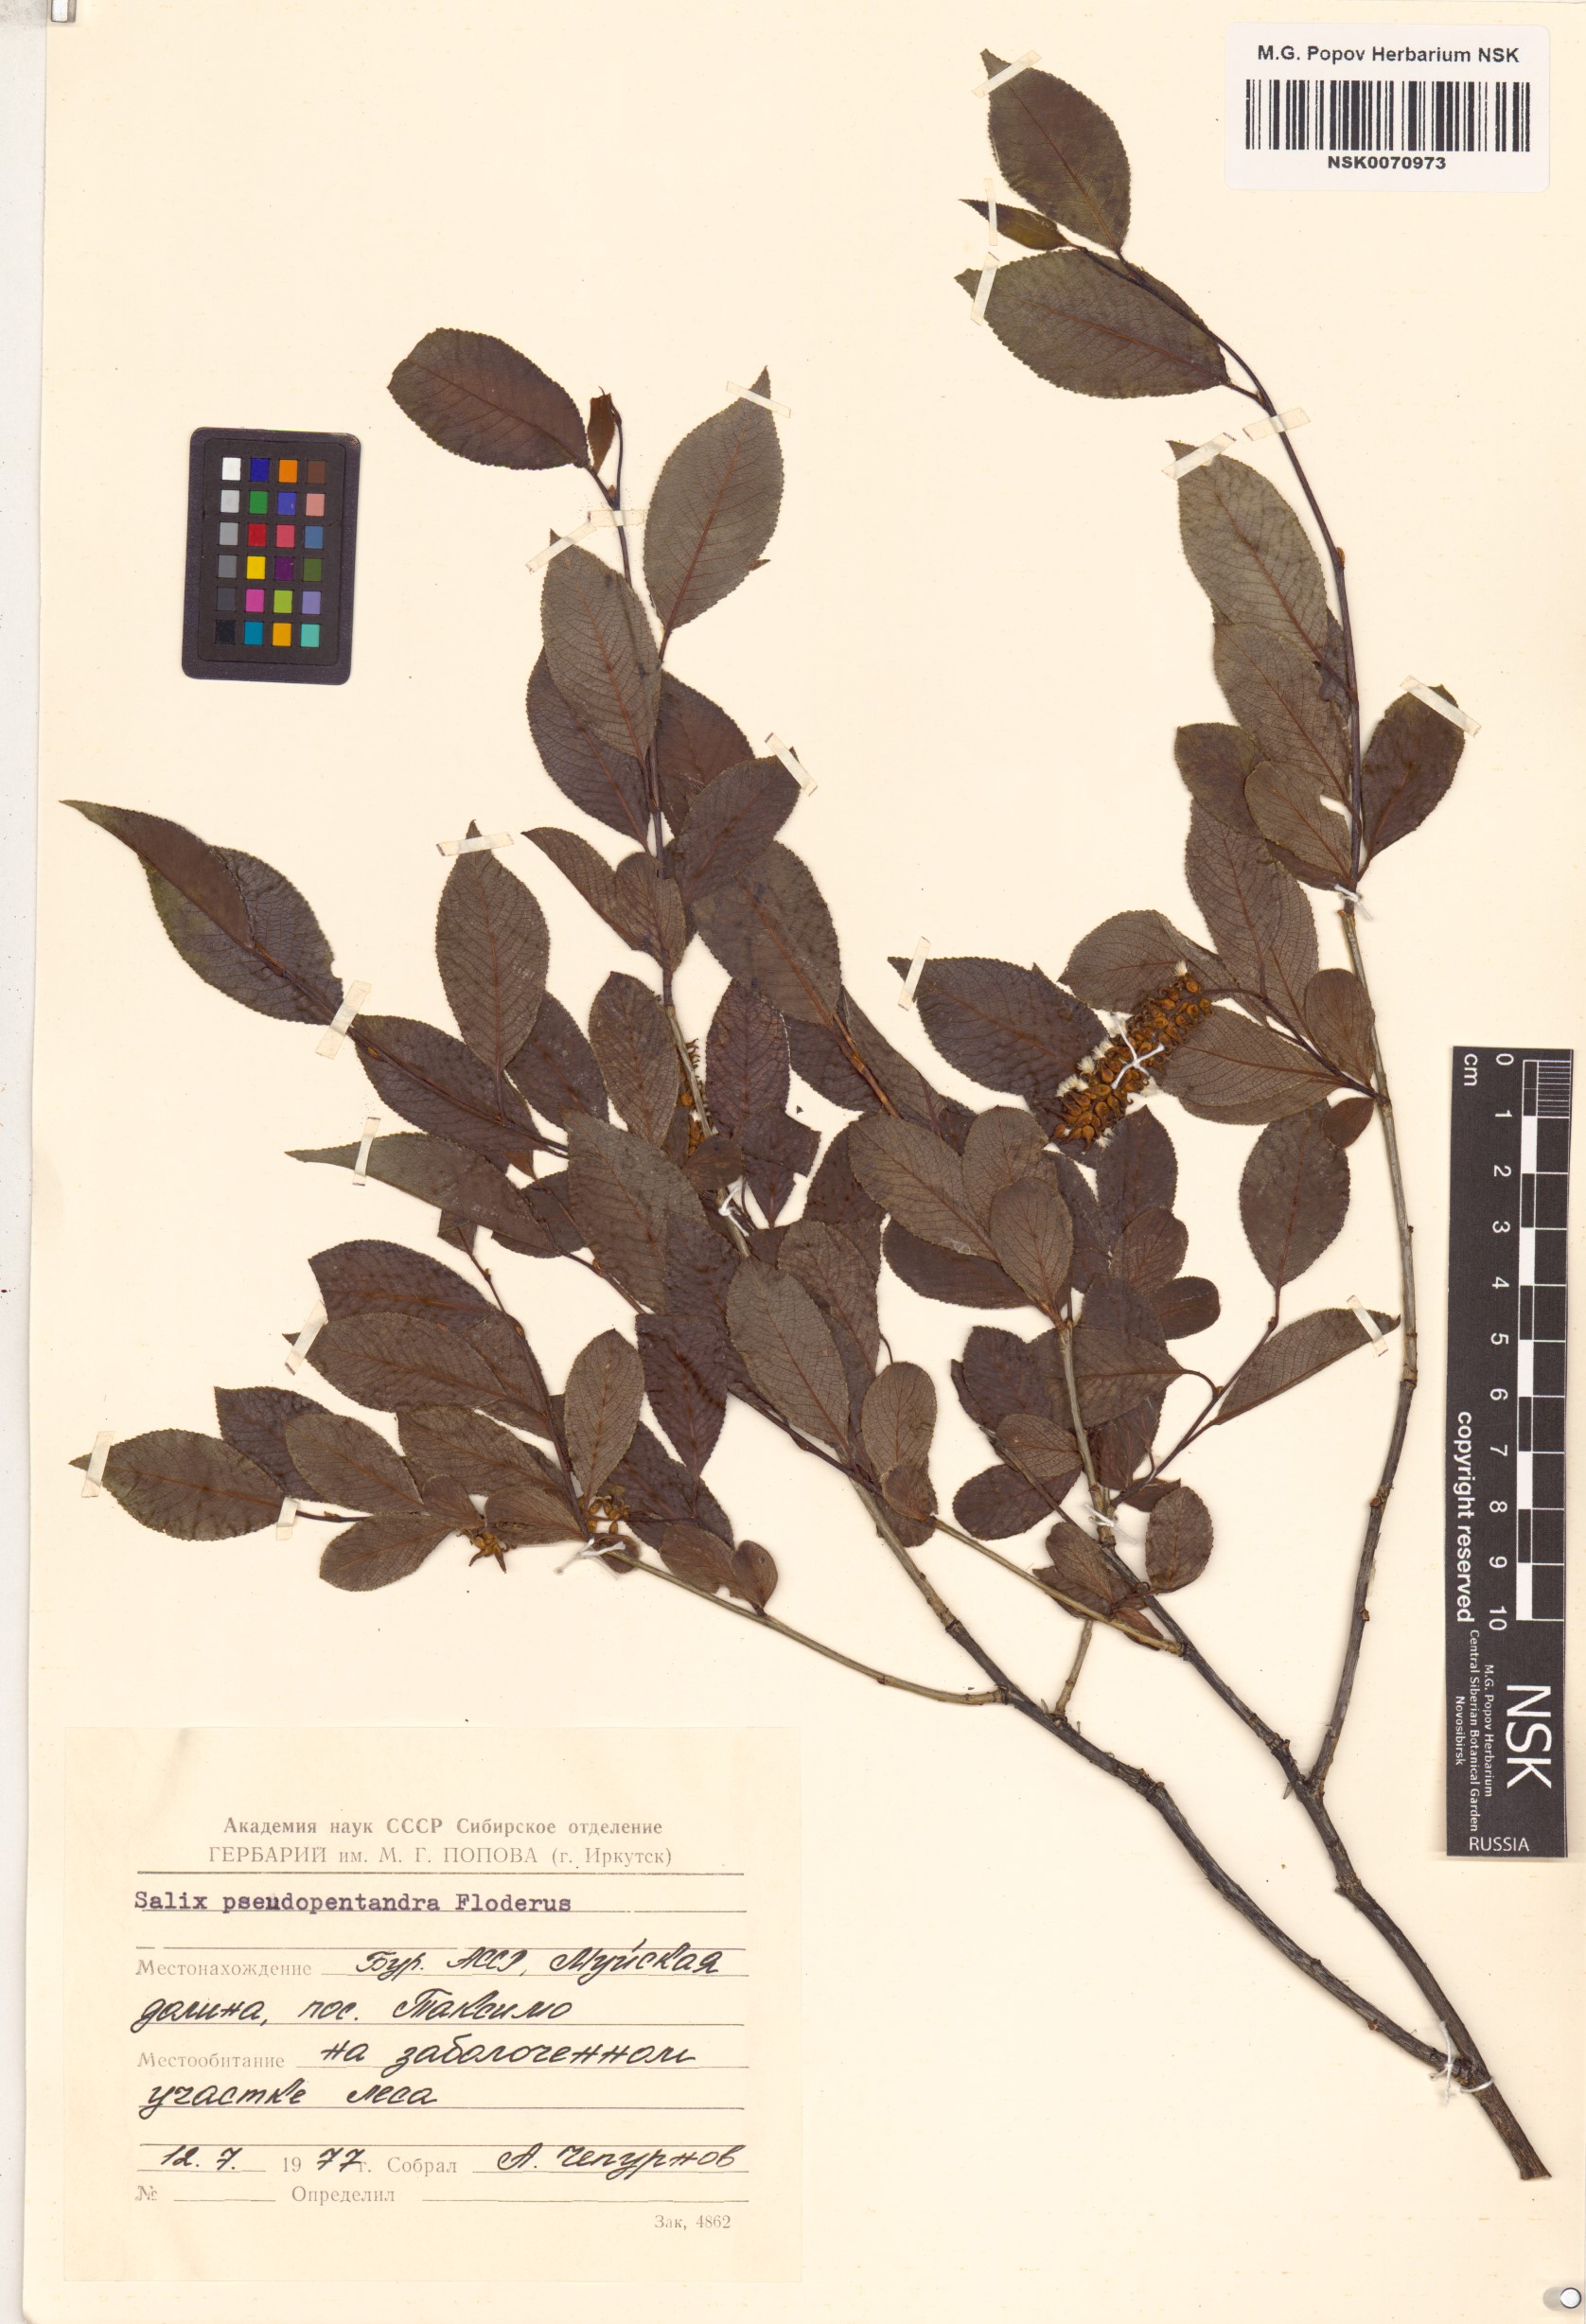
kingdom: Plantae
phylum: Tracheophyta
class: Magnoliopsida
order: Malpighiales
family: Salicaceae
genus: Salix
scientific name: Salix pseudopentandra
